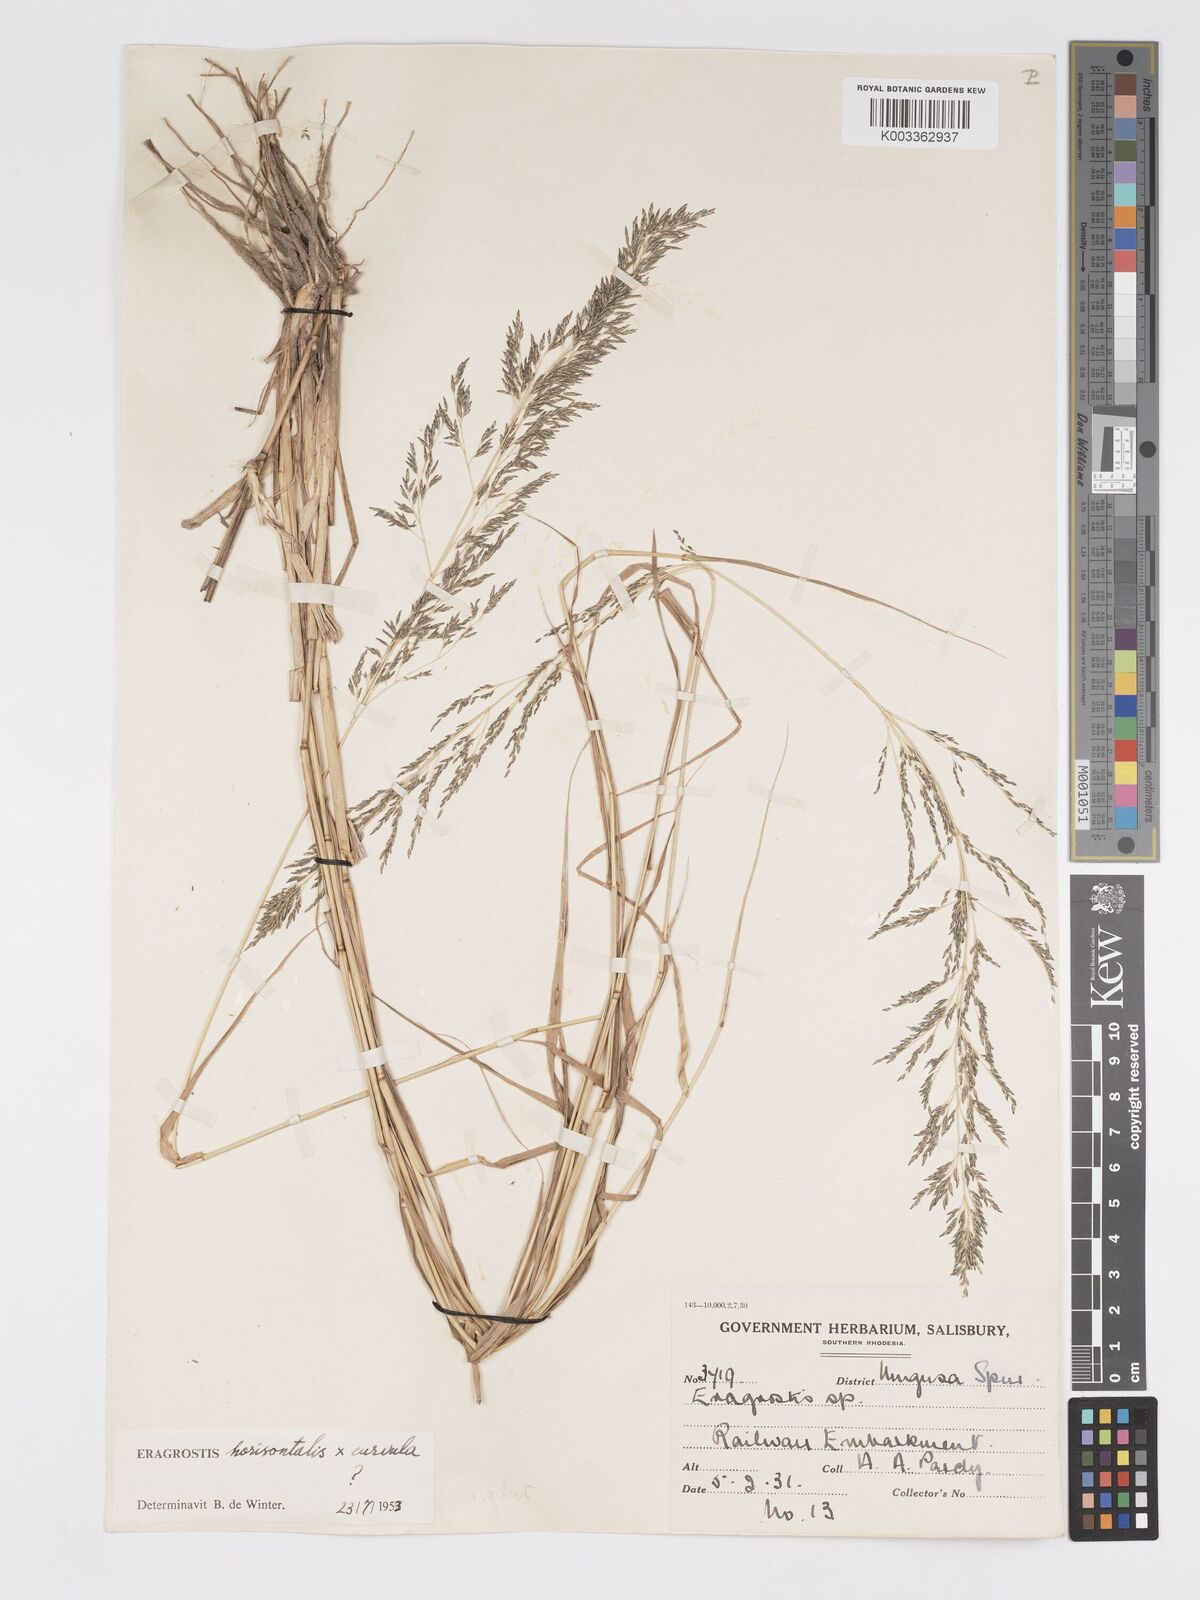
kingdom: Plantae
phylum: Tracheophyta
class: Liliopsida
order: Poales
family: Poaceae
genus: Eragrostis
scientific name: Eragrostis cylindriflora
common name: Cylinderflower lovegrass
